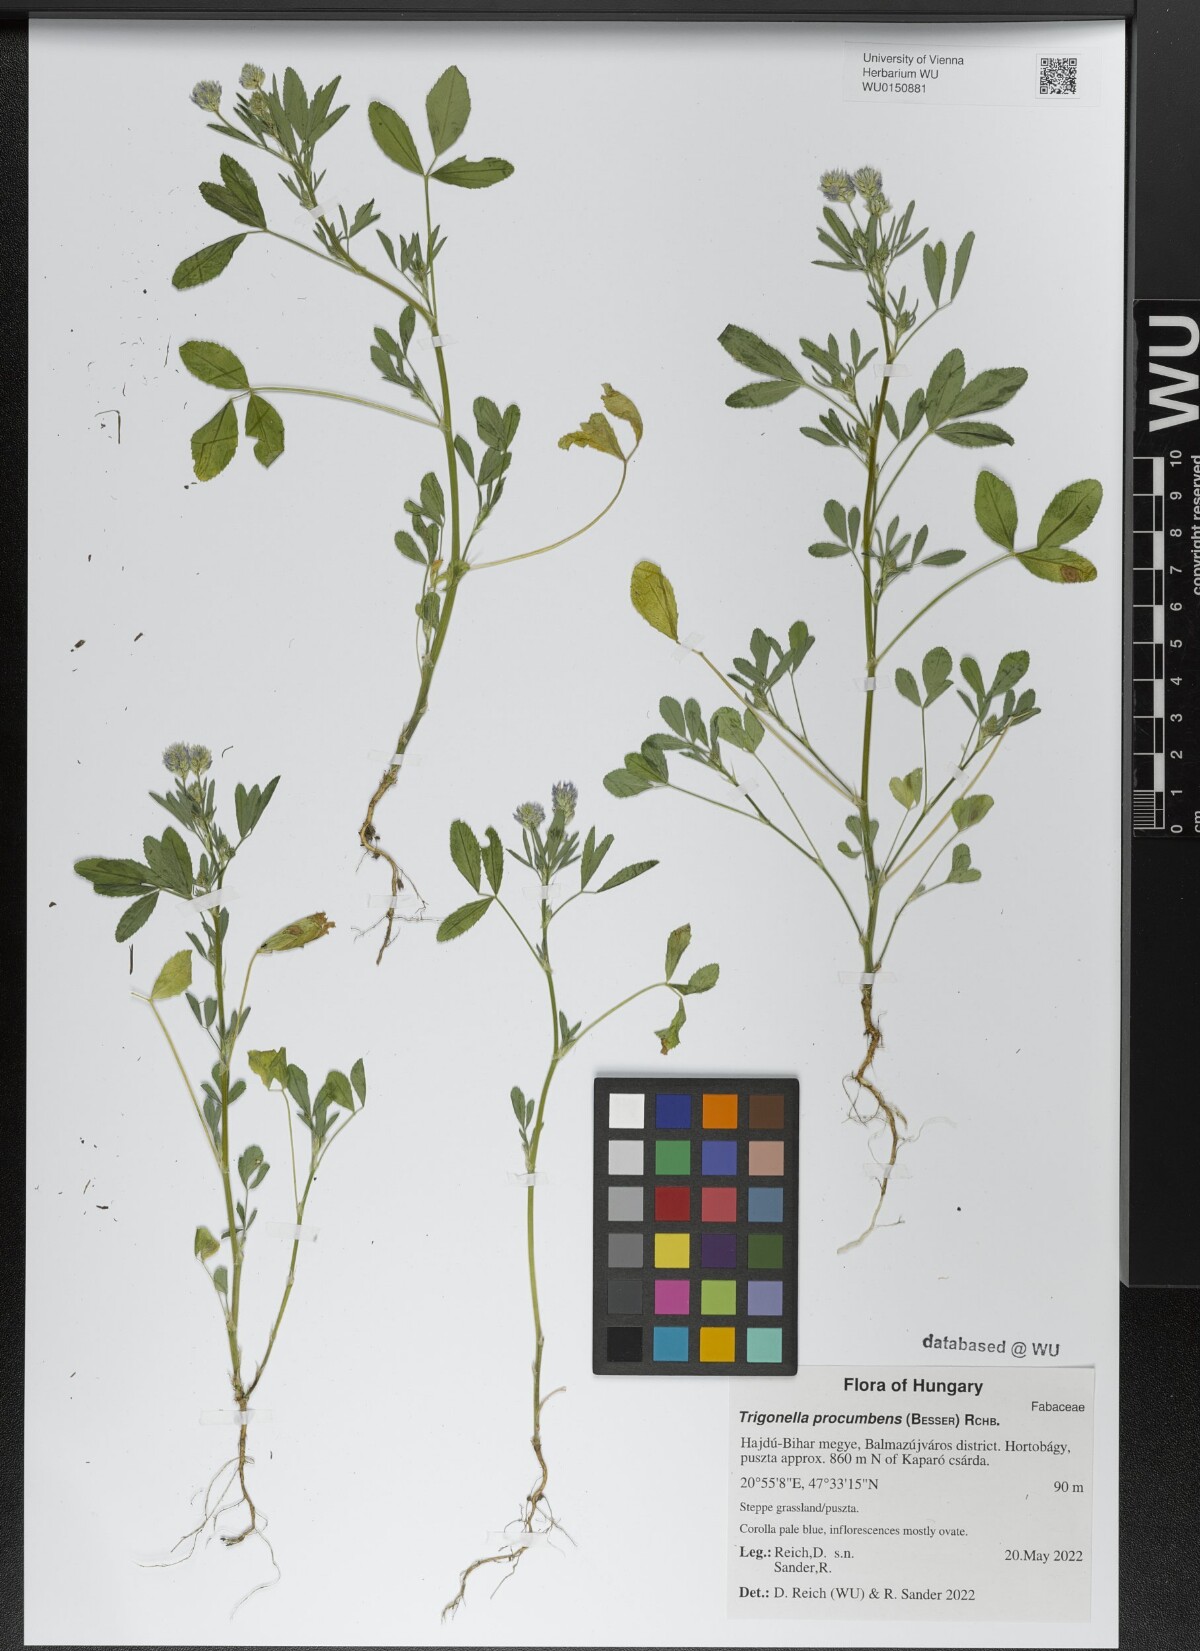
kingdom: Plantae
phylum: Tracheophyta
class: Magnoliopsida
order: Fabales
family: Fabaceae
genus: Trigonella
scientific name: Trigonella procumbens
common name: Trailing fenugreek
